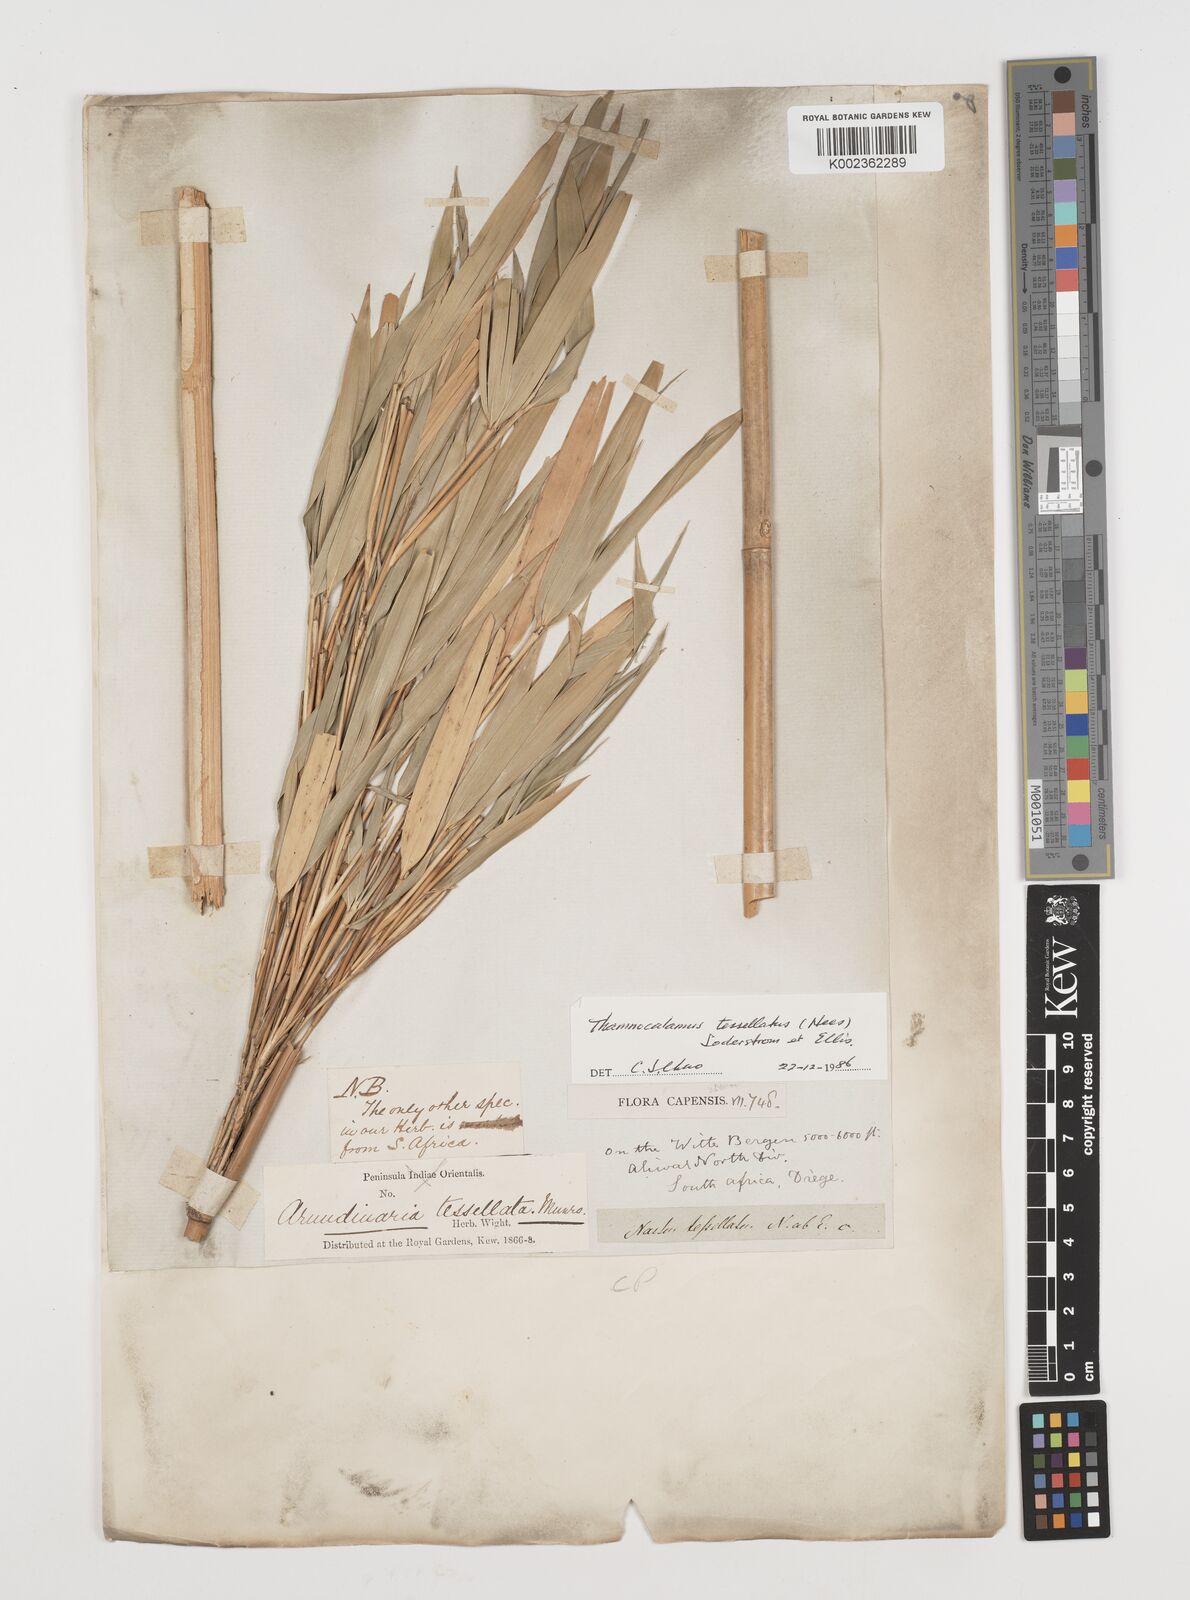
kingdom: Plantae
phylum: Tracheophyta
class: Liliopsida
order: Poales
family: Poaceae
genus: Bergbambos
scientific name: Bergbambos tessellata
